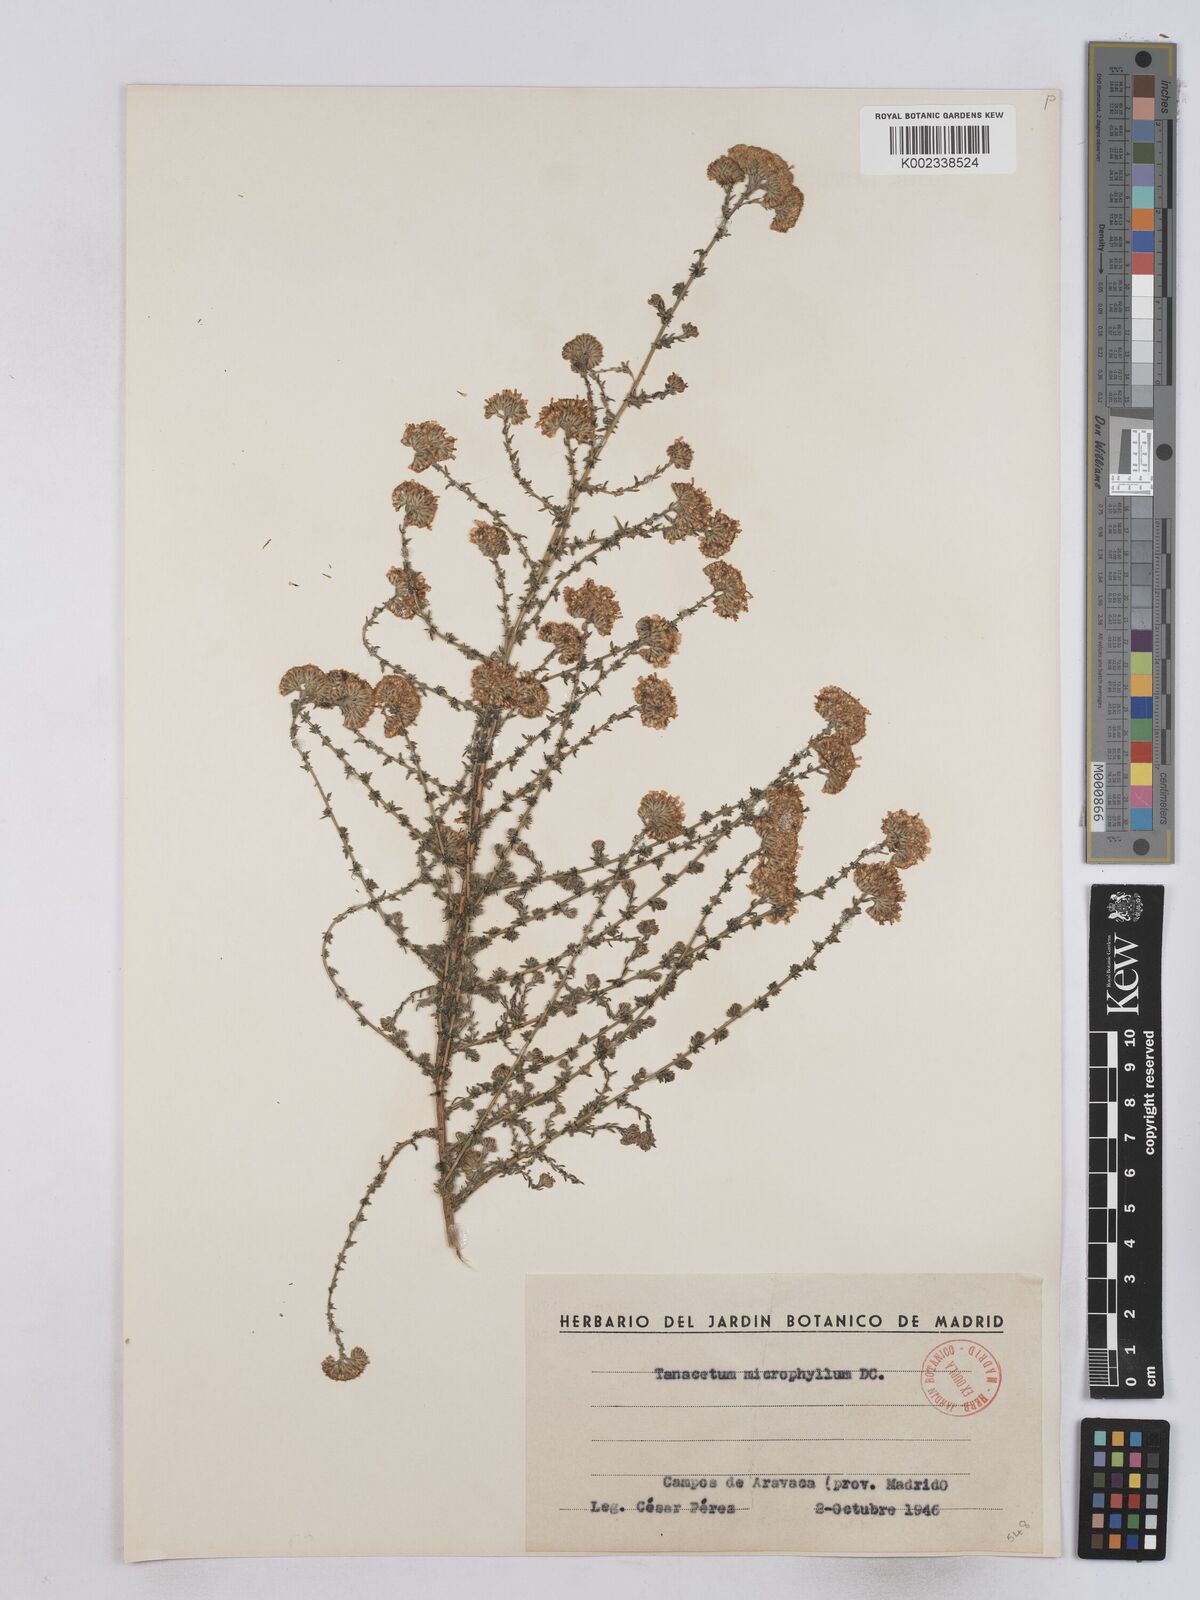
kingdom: Plantae
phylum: Tracheophyta
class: Magnoliopsida
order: Asterales
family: Asteraceae
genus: Vogtia
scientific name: Vogtia microphylla
